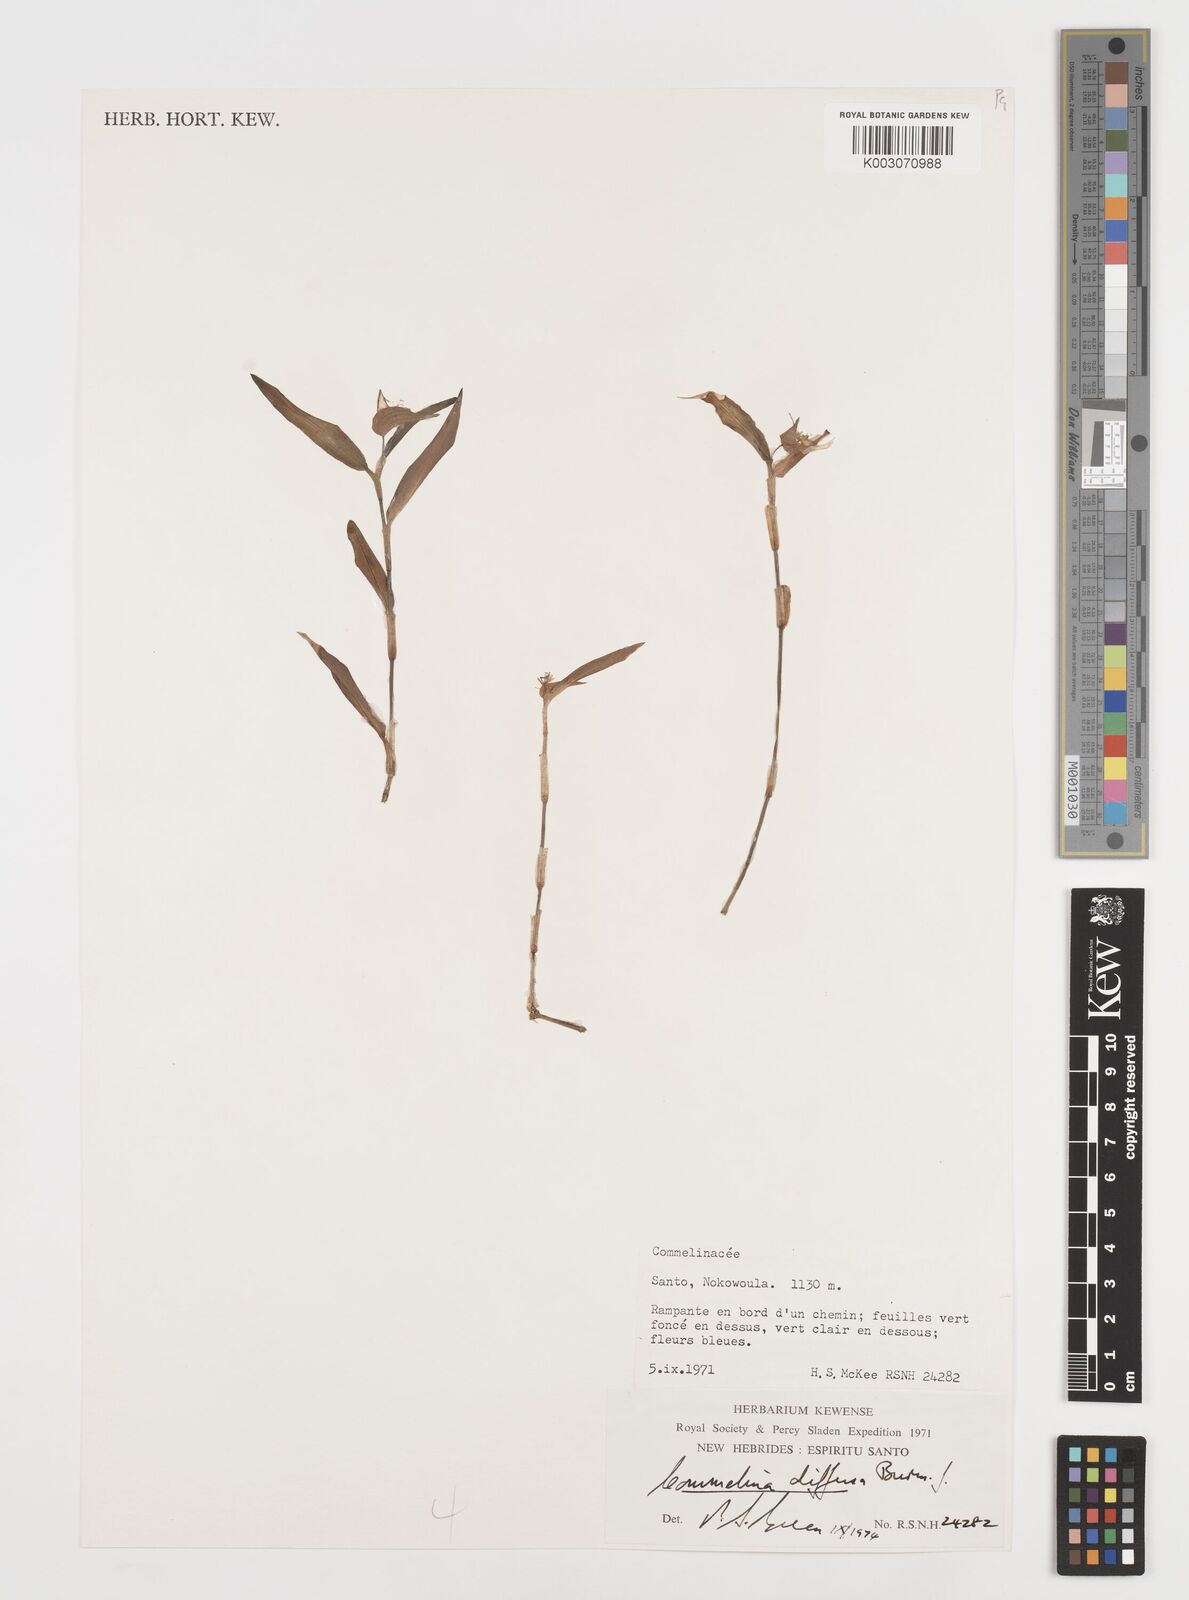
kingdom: Plantae
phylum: Tracheophyta
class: Liliopsida
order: Commelinales
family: Commelinaceae
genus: Commelina
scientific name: Commelina diffusa
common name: Climbing dayflower
